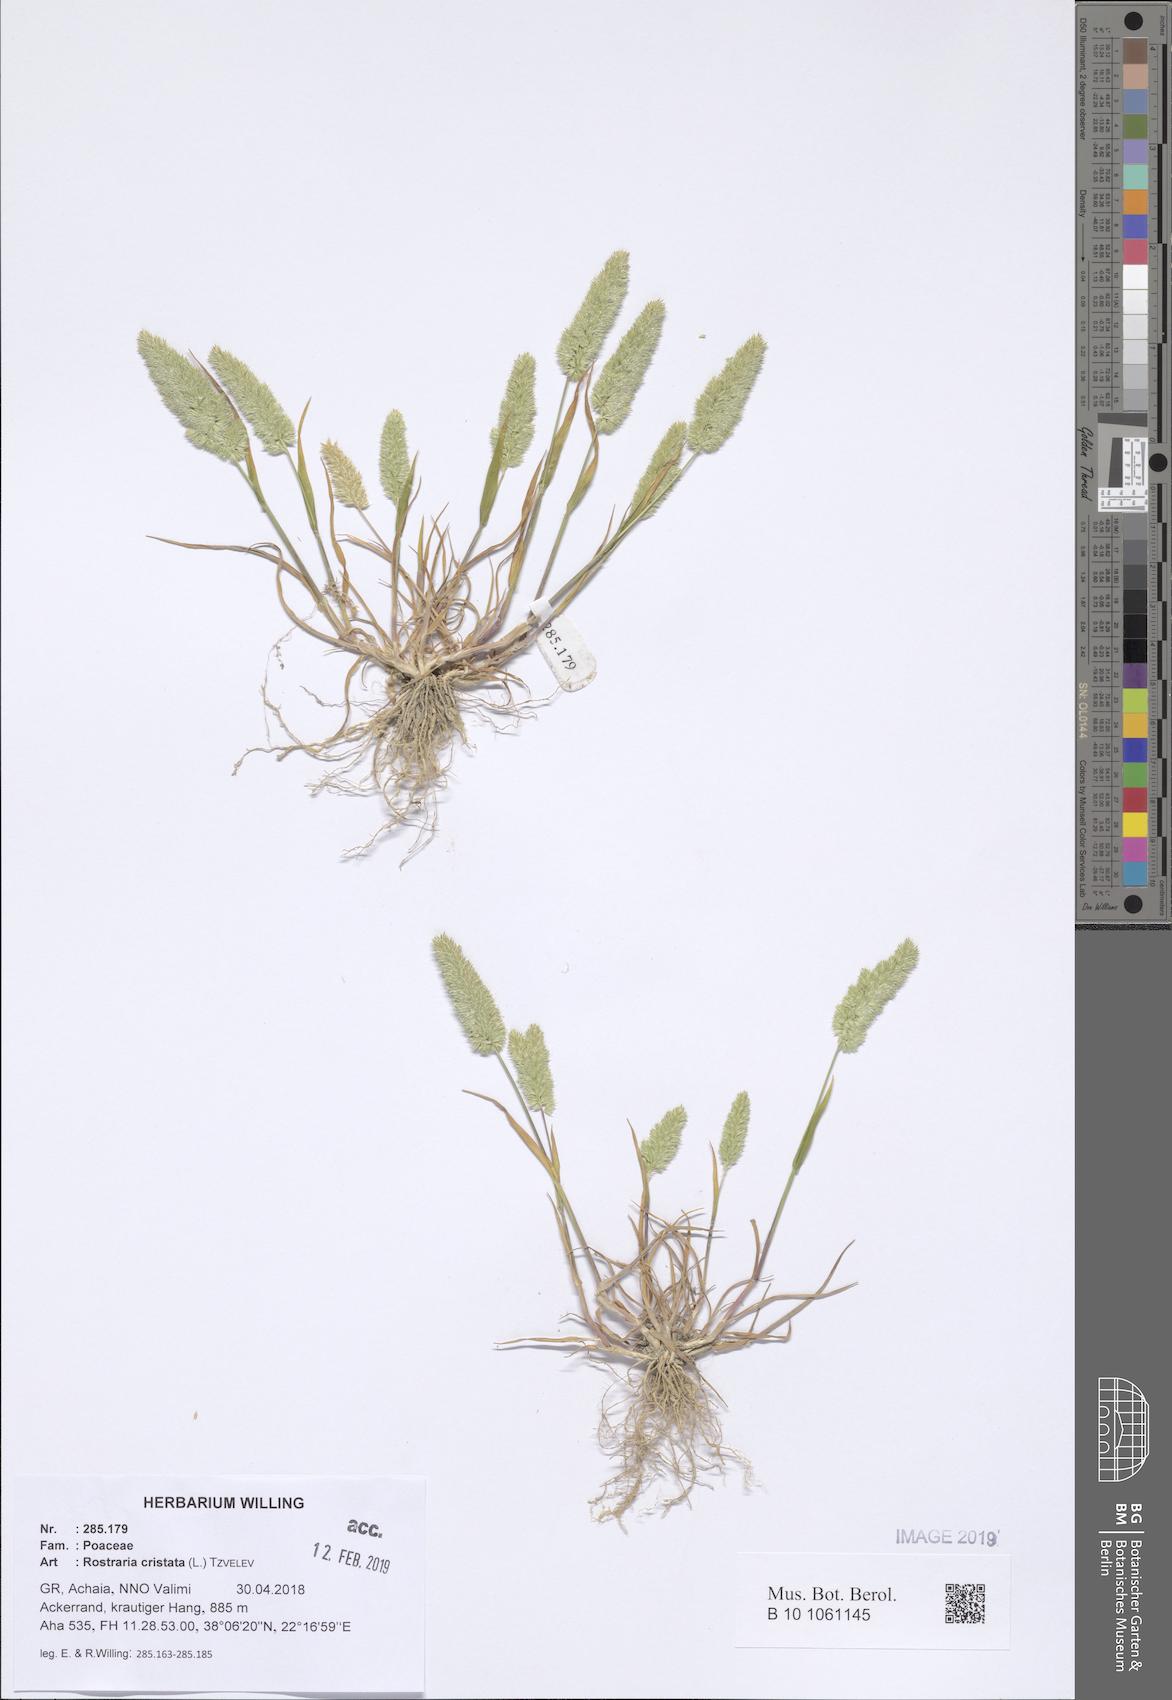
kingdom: Plantae
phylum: Tracheophyta
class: Liliopsida
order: Poales
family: Poaceae
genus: Rostraria
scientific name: Rostraria cristata
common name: Mediterranean hair-grass
